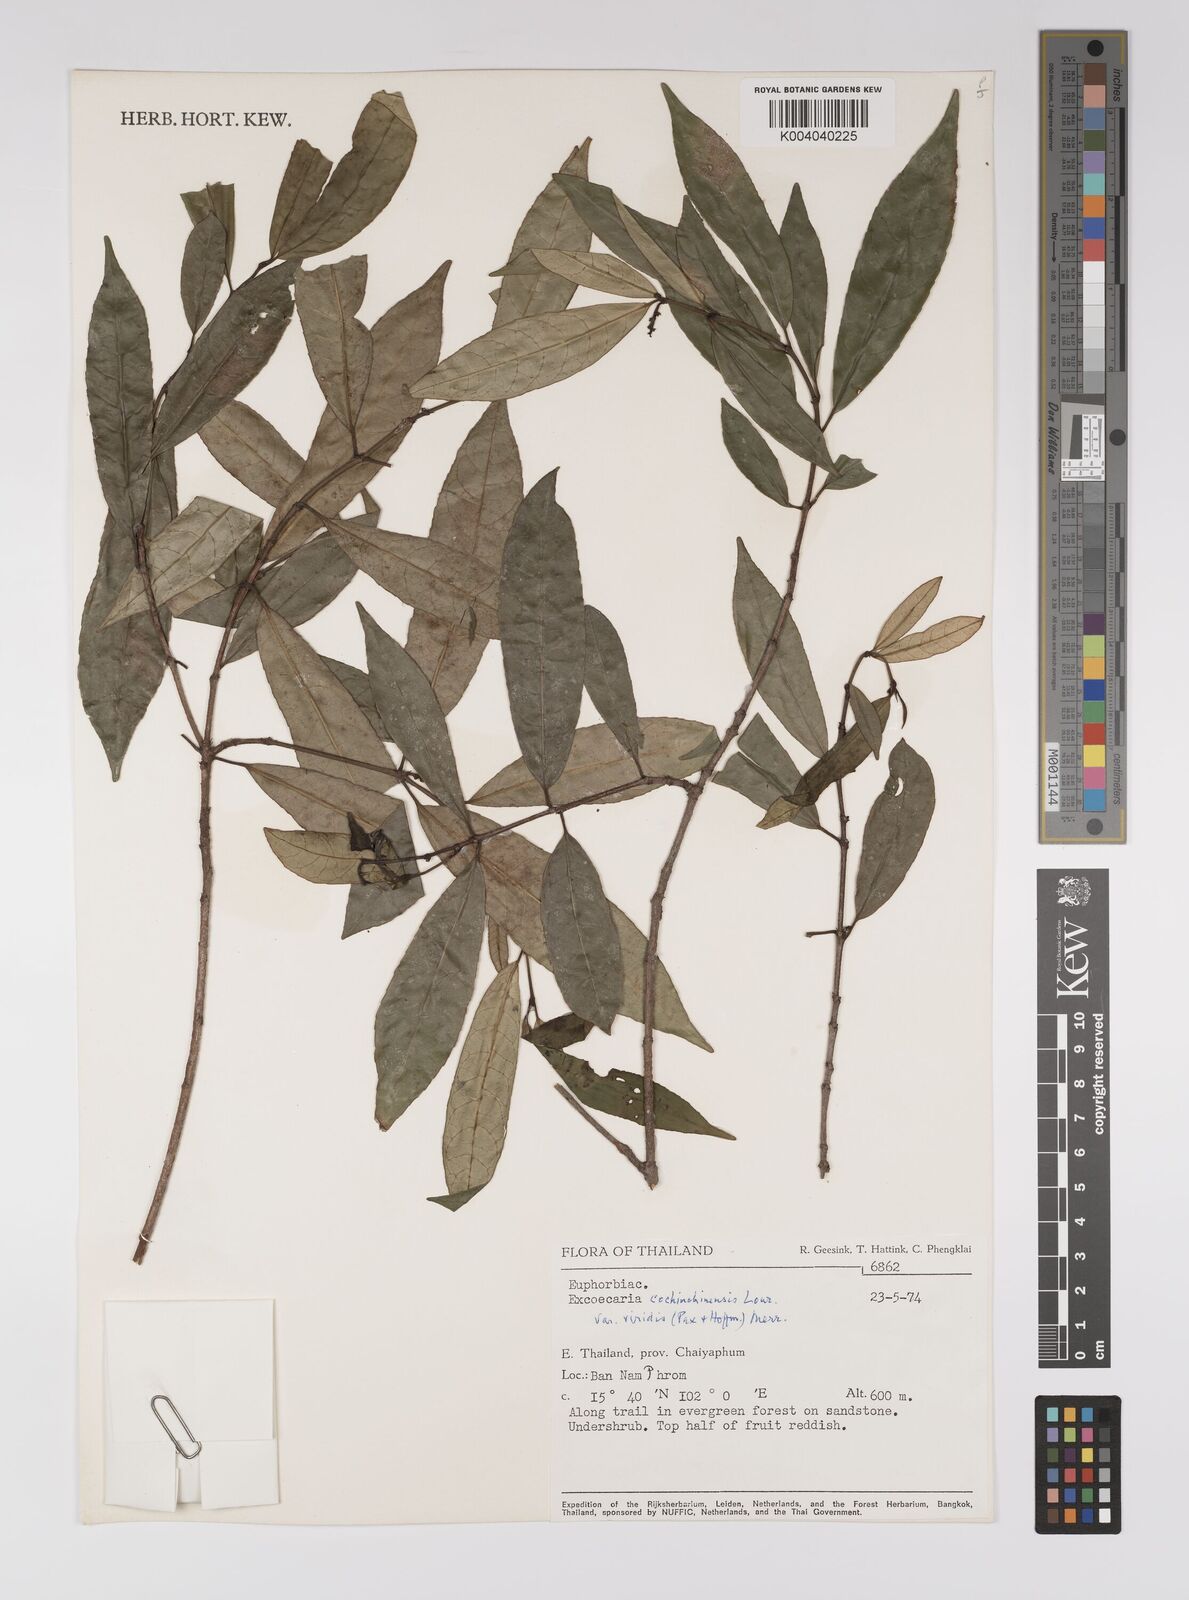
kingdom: Plantae
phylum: Tracheophyta
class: Magnoliopsida
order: Malpighiales
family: Euphorbiaceae
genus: Excoecaria
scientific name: Excoecaria cochinchinensis
